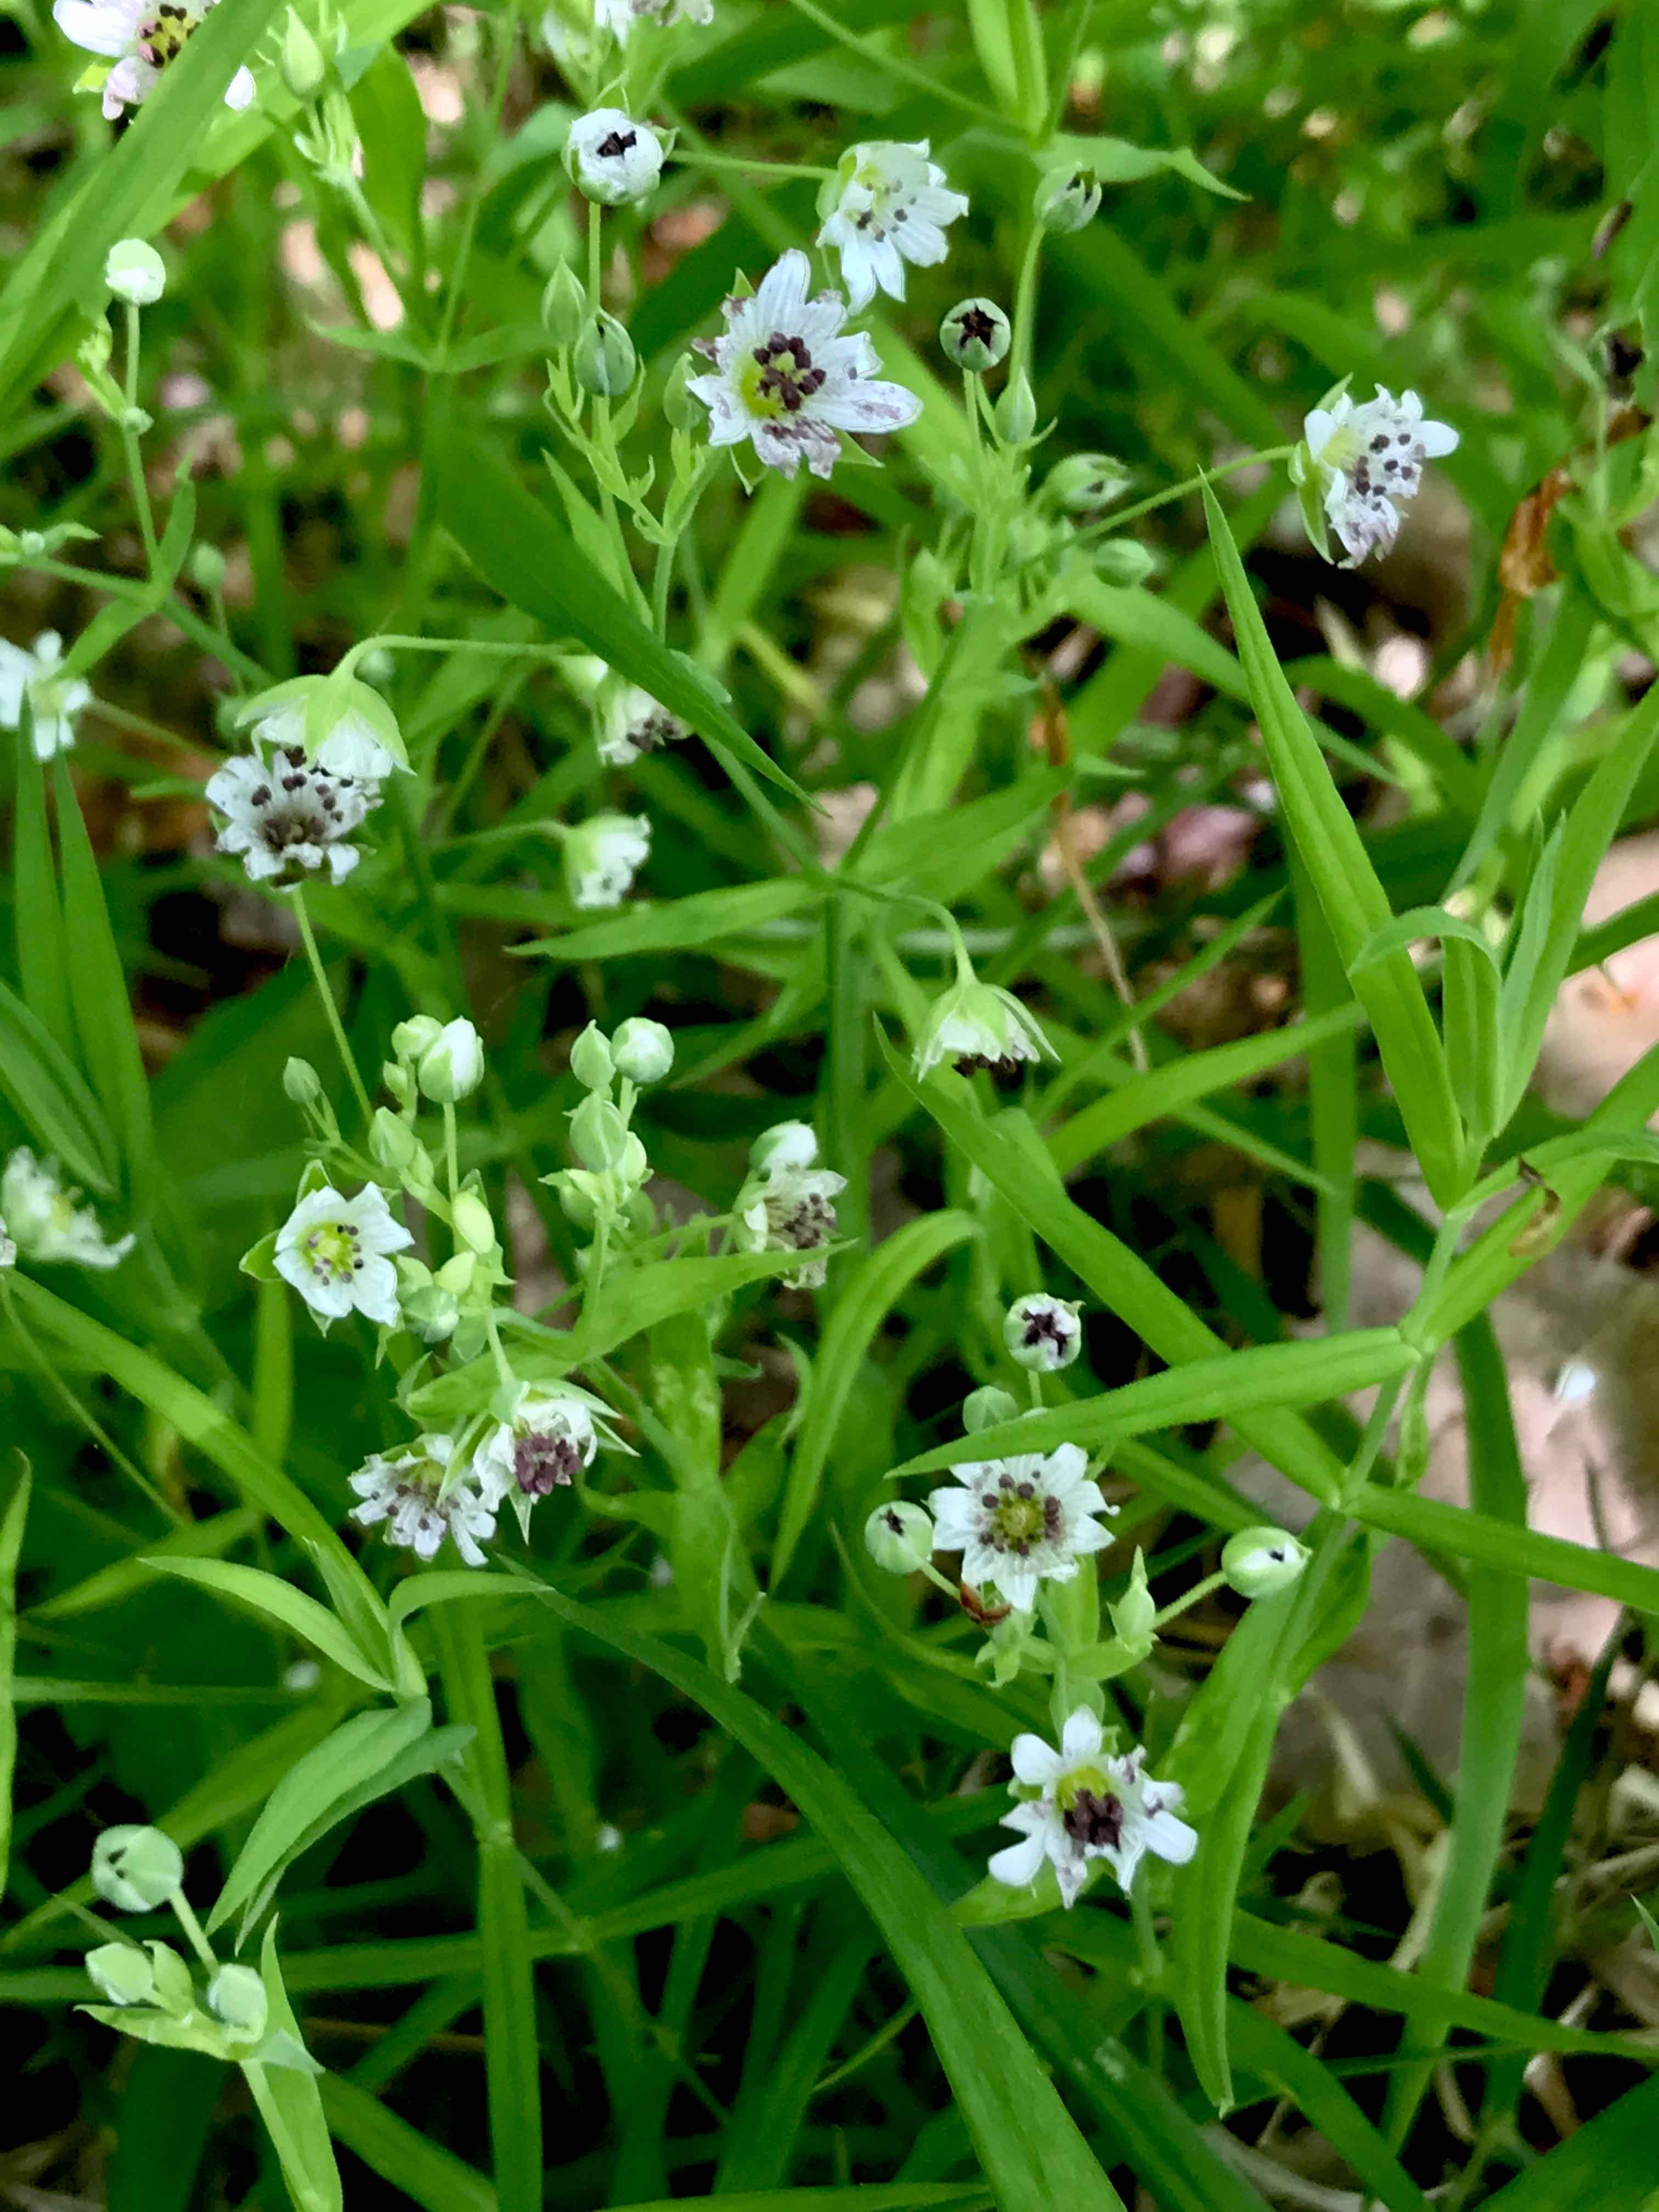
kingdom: Fungi
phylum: Basidiomycota
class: Microbotryomycetes
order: Microbotryales
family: Microbotryaceae
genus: Microbotryum
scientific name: Microbotryum stellariae
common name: fladstjerne-støvbladrust
